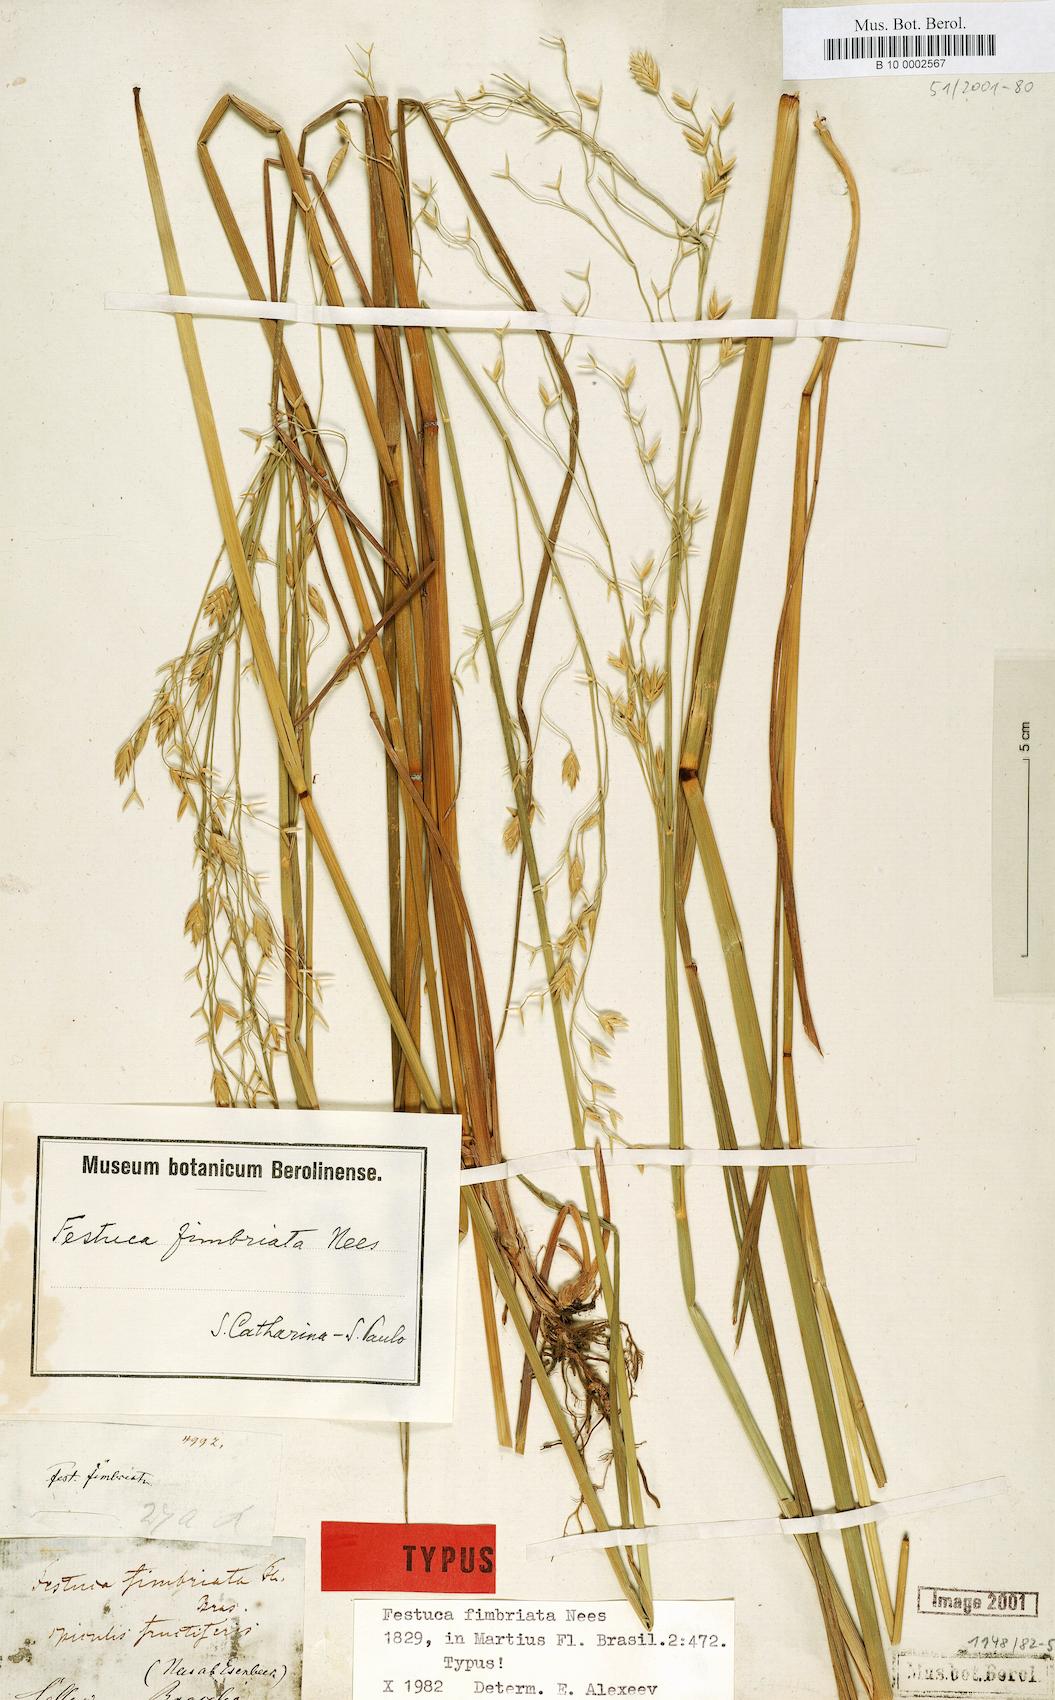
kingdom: Plantae
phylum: Tracheophyta
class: Liliopsida
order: Poales
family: Poaceae
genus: Festuca
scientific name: Festuca fimbriata
